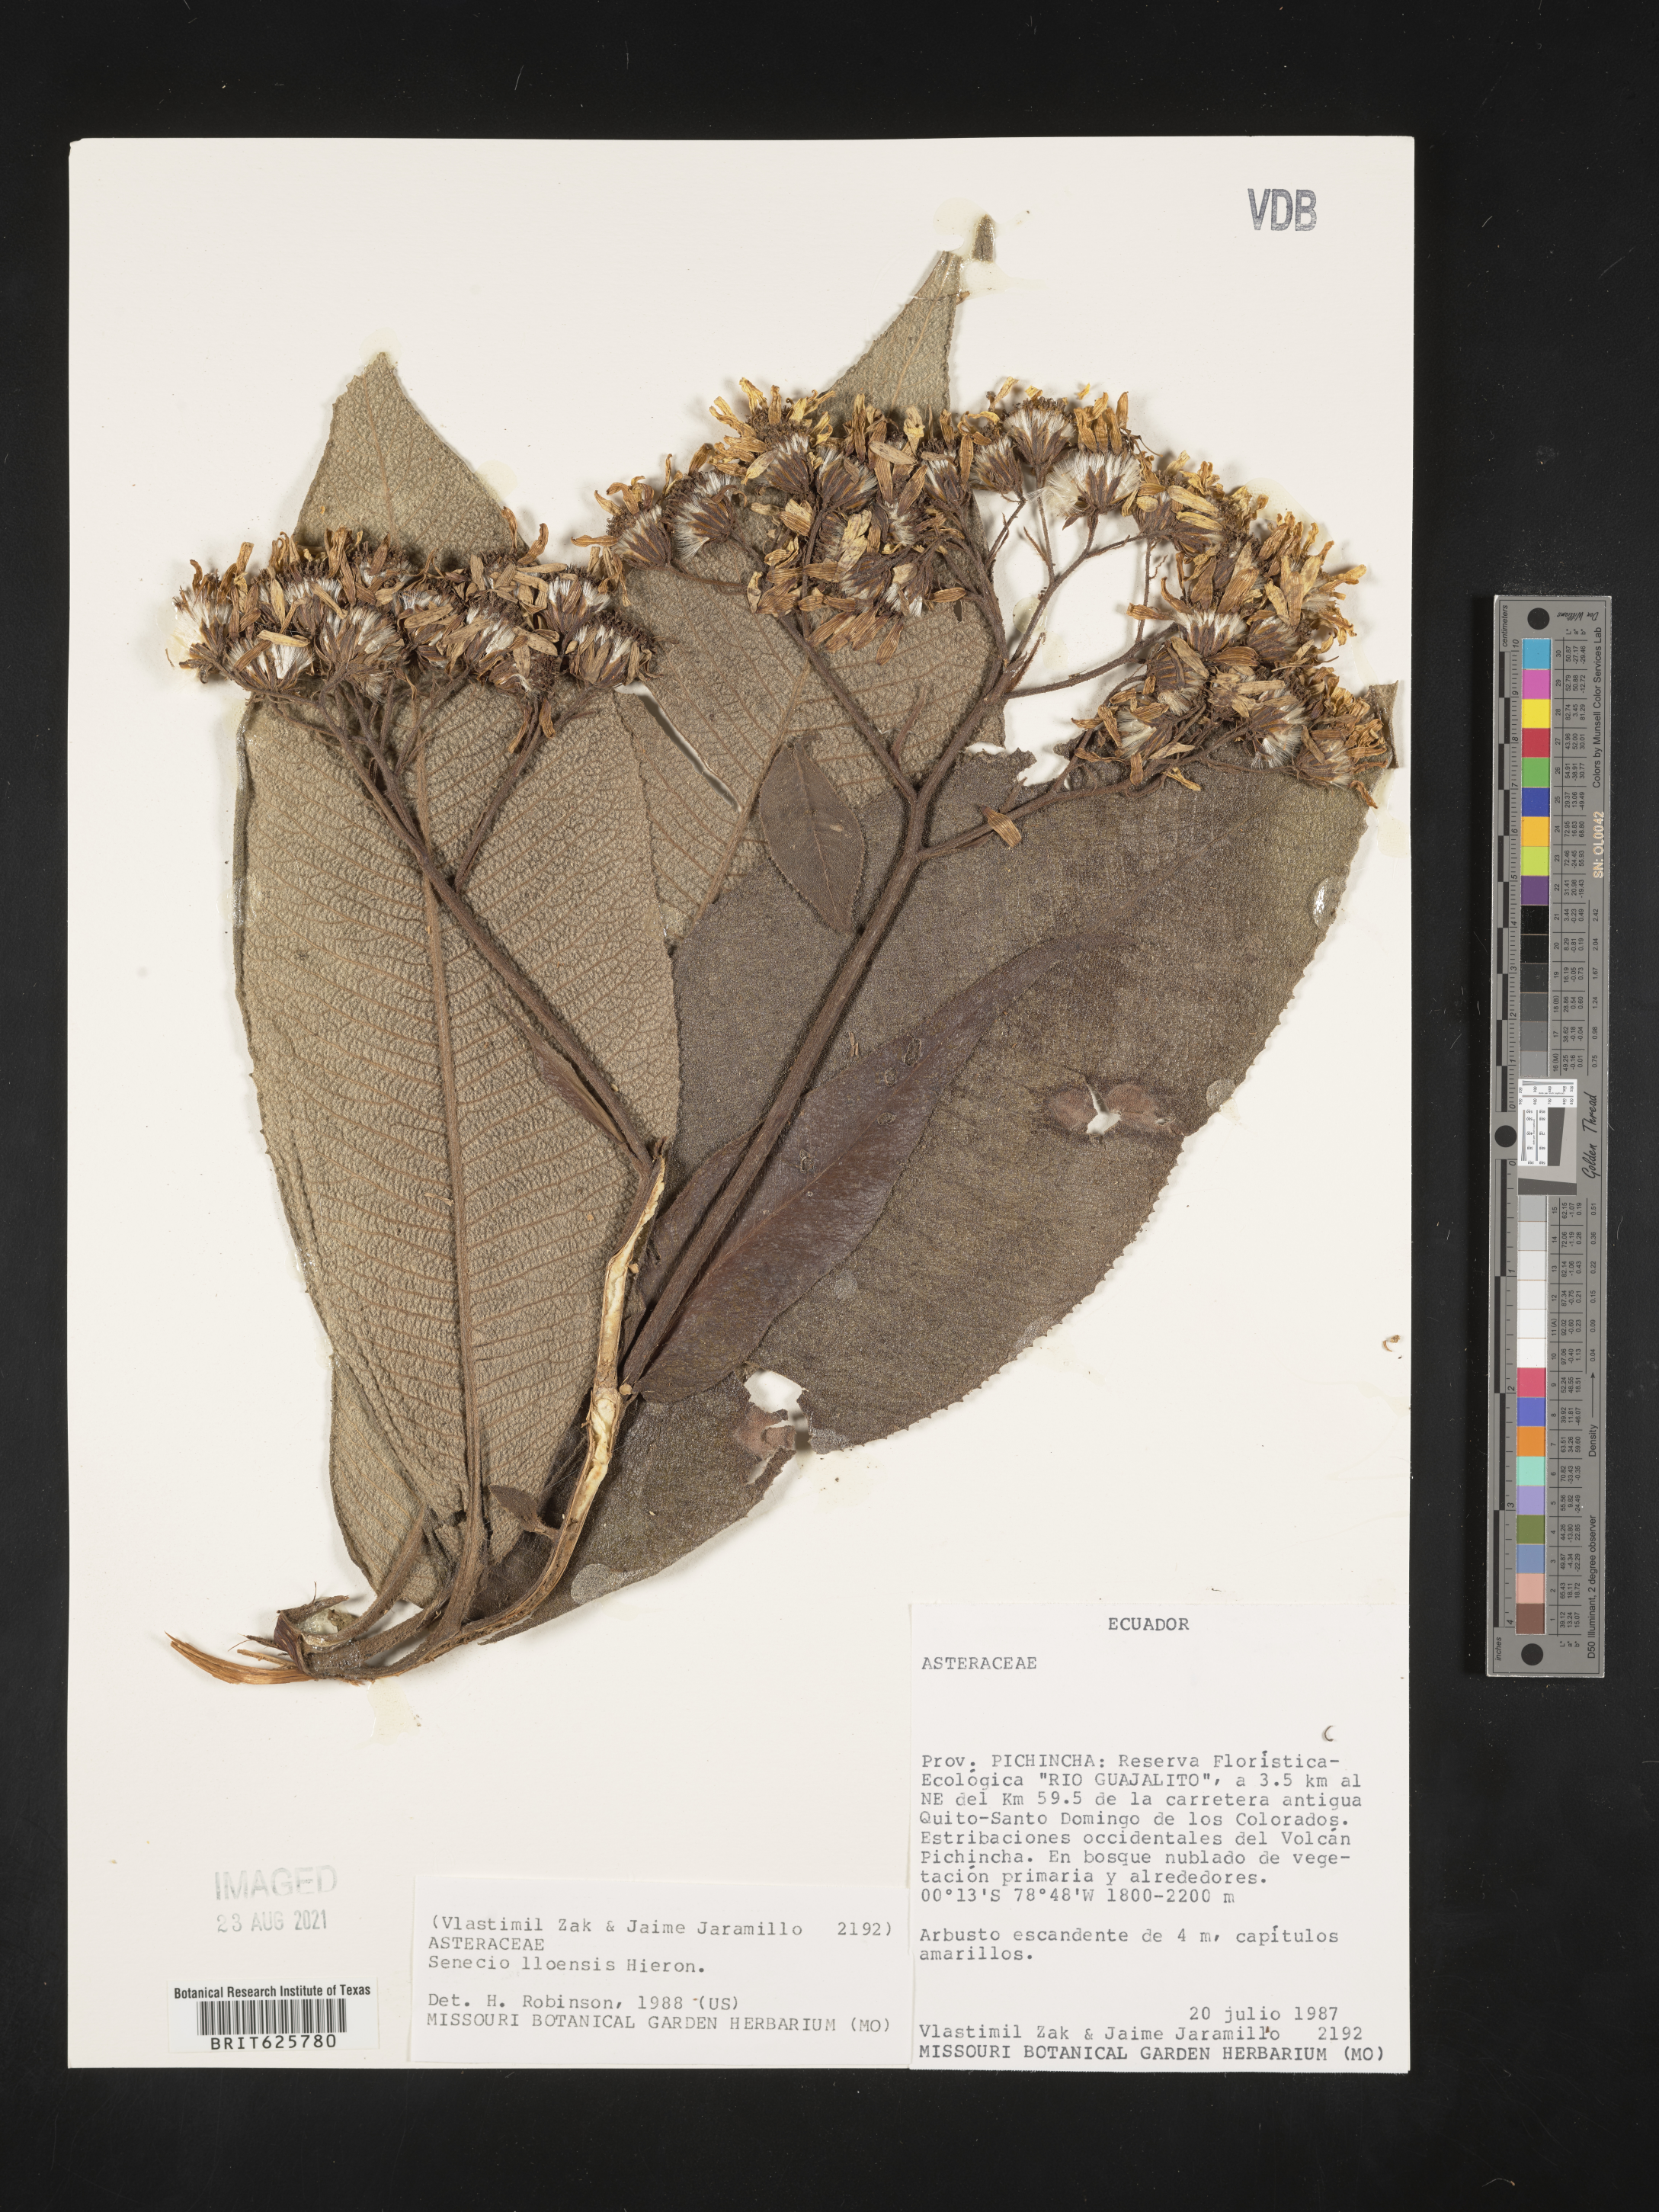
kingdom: Plantae
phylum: Tracheophyta
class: Magnoliopsida
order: Asterales
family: Asteraceae
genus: Dendrophorbium
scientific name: Dendrophorbium lloense
